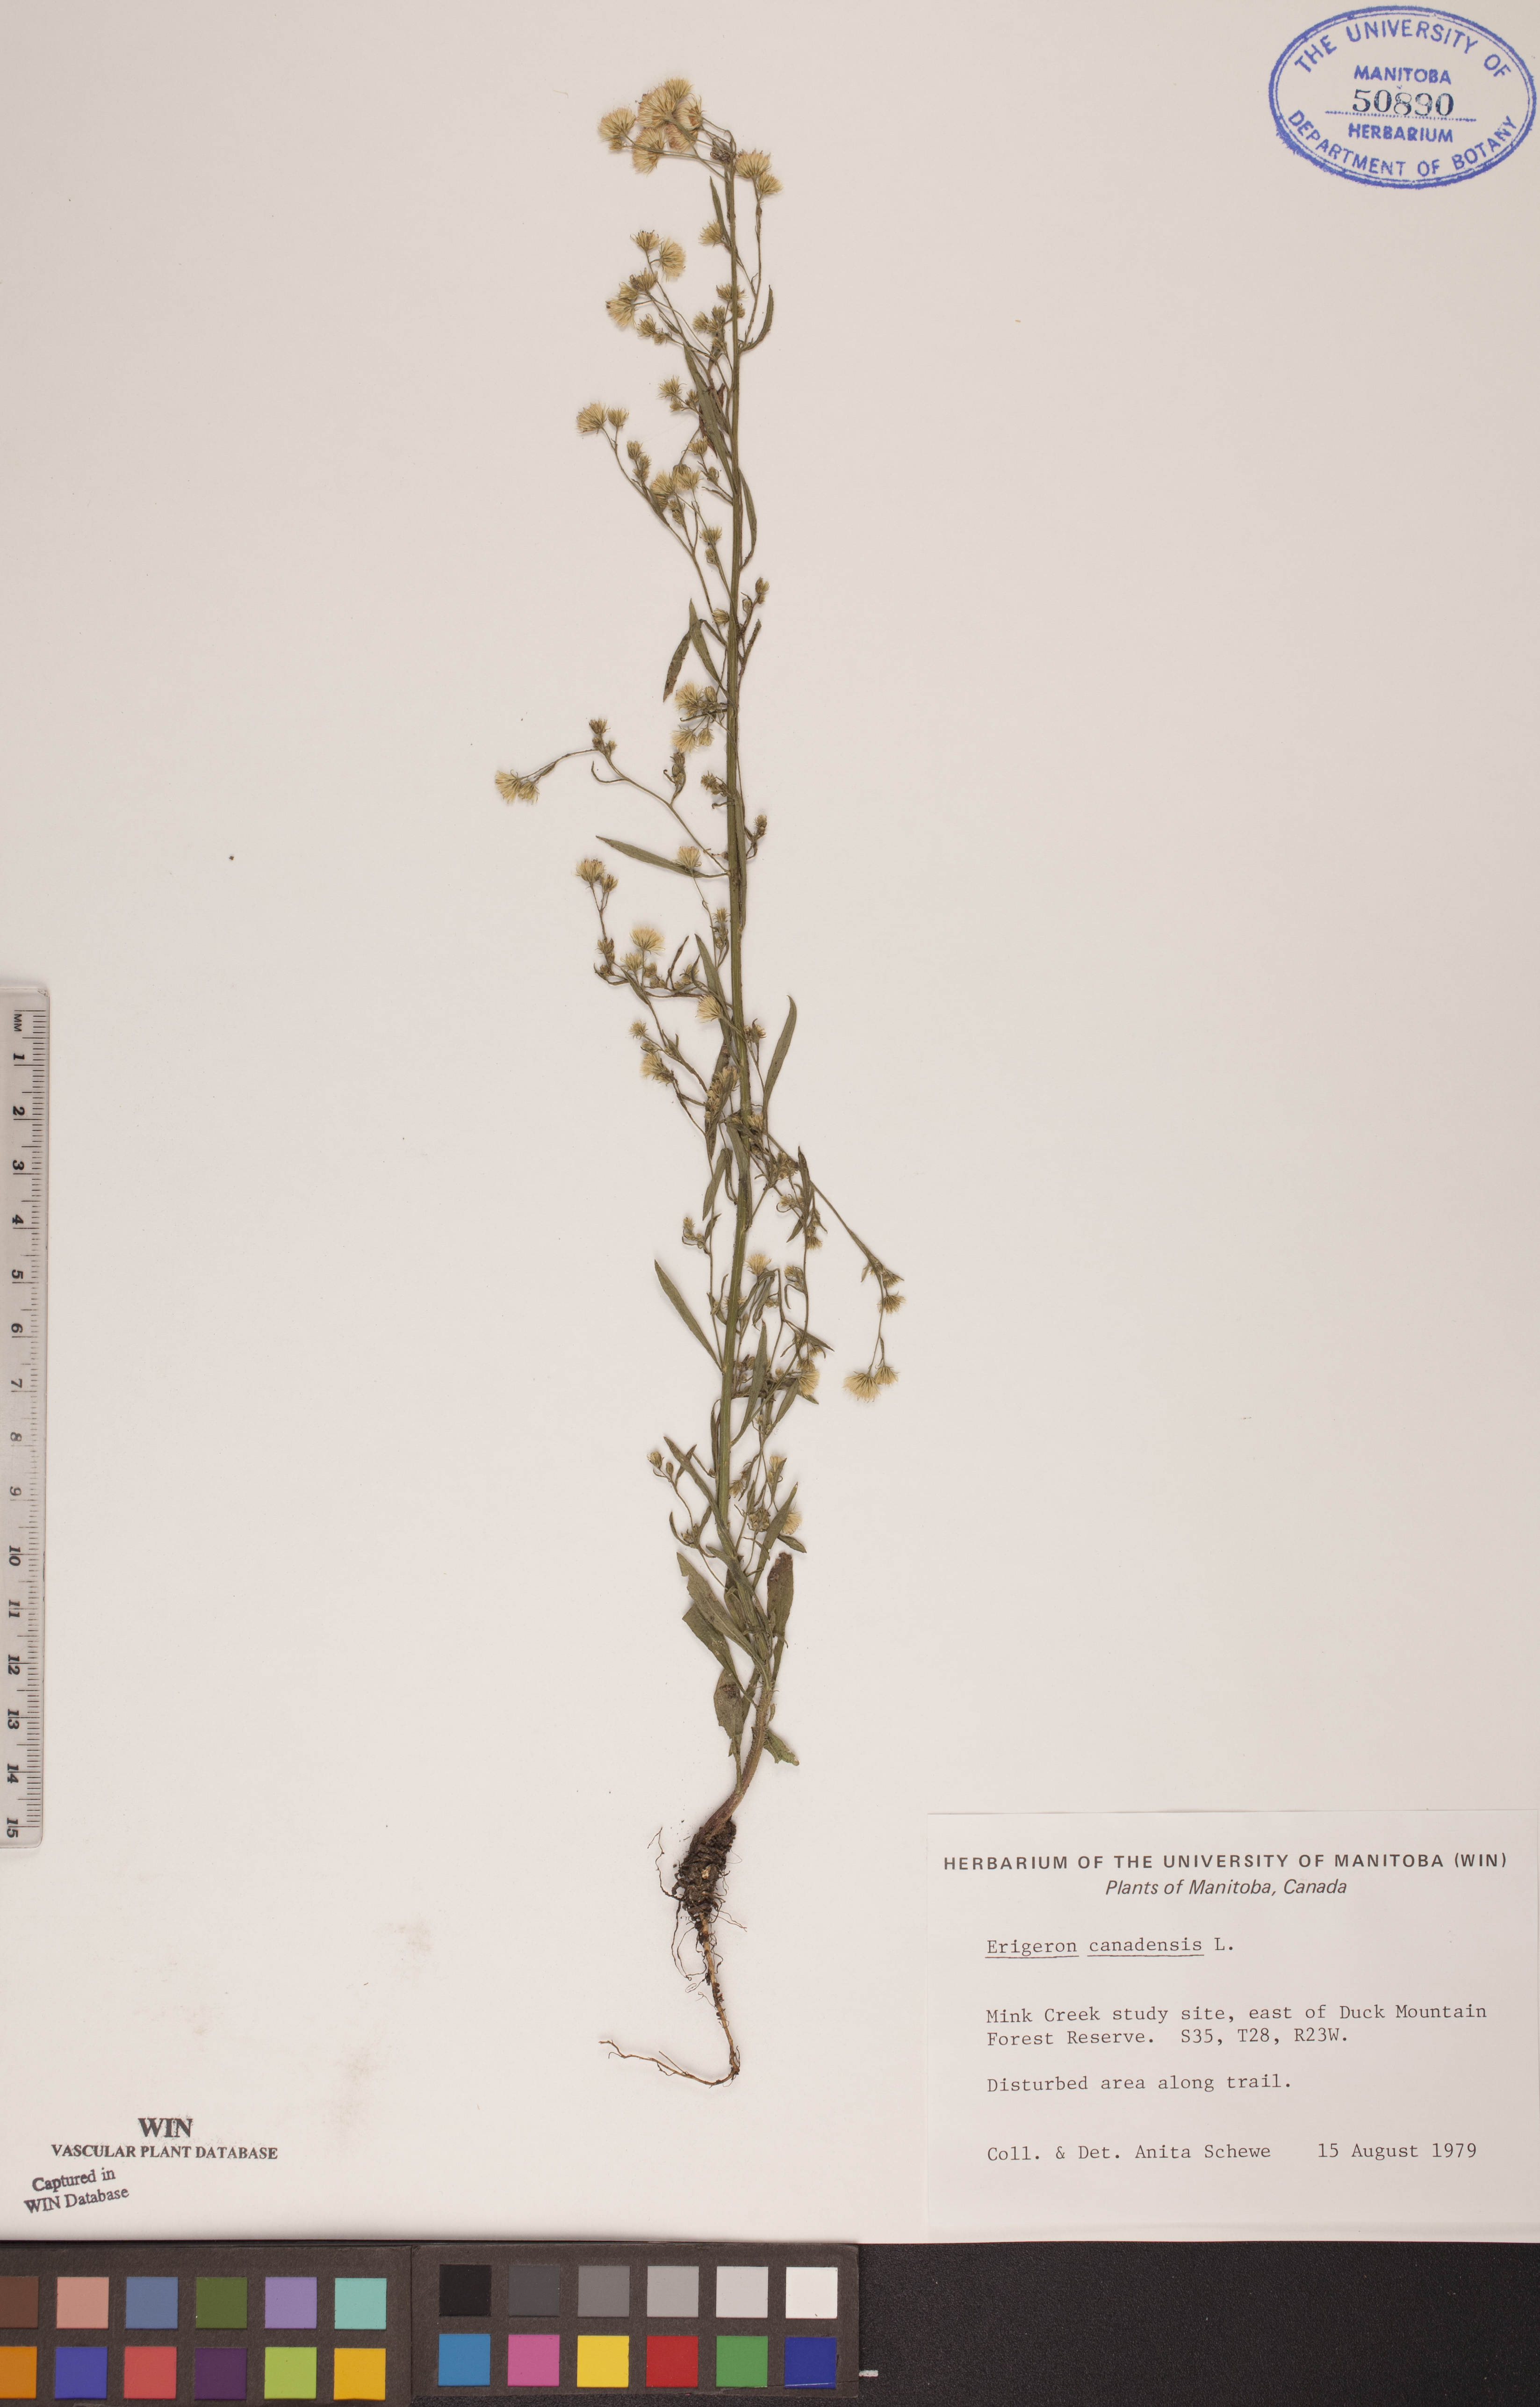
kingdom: Plantae
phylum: Tracheophyta
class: Magnoliopsida
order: Asterales
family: Asteraceae
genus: Erigeron
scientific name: Erigeron canadensis
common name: Canadian fleabane
